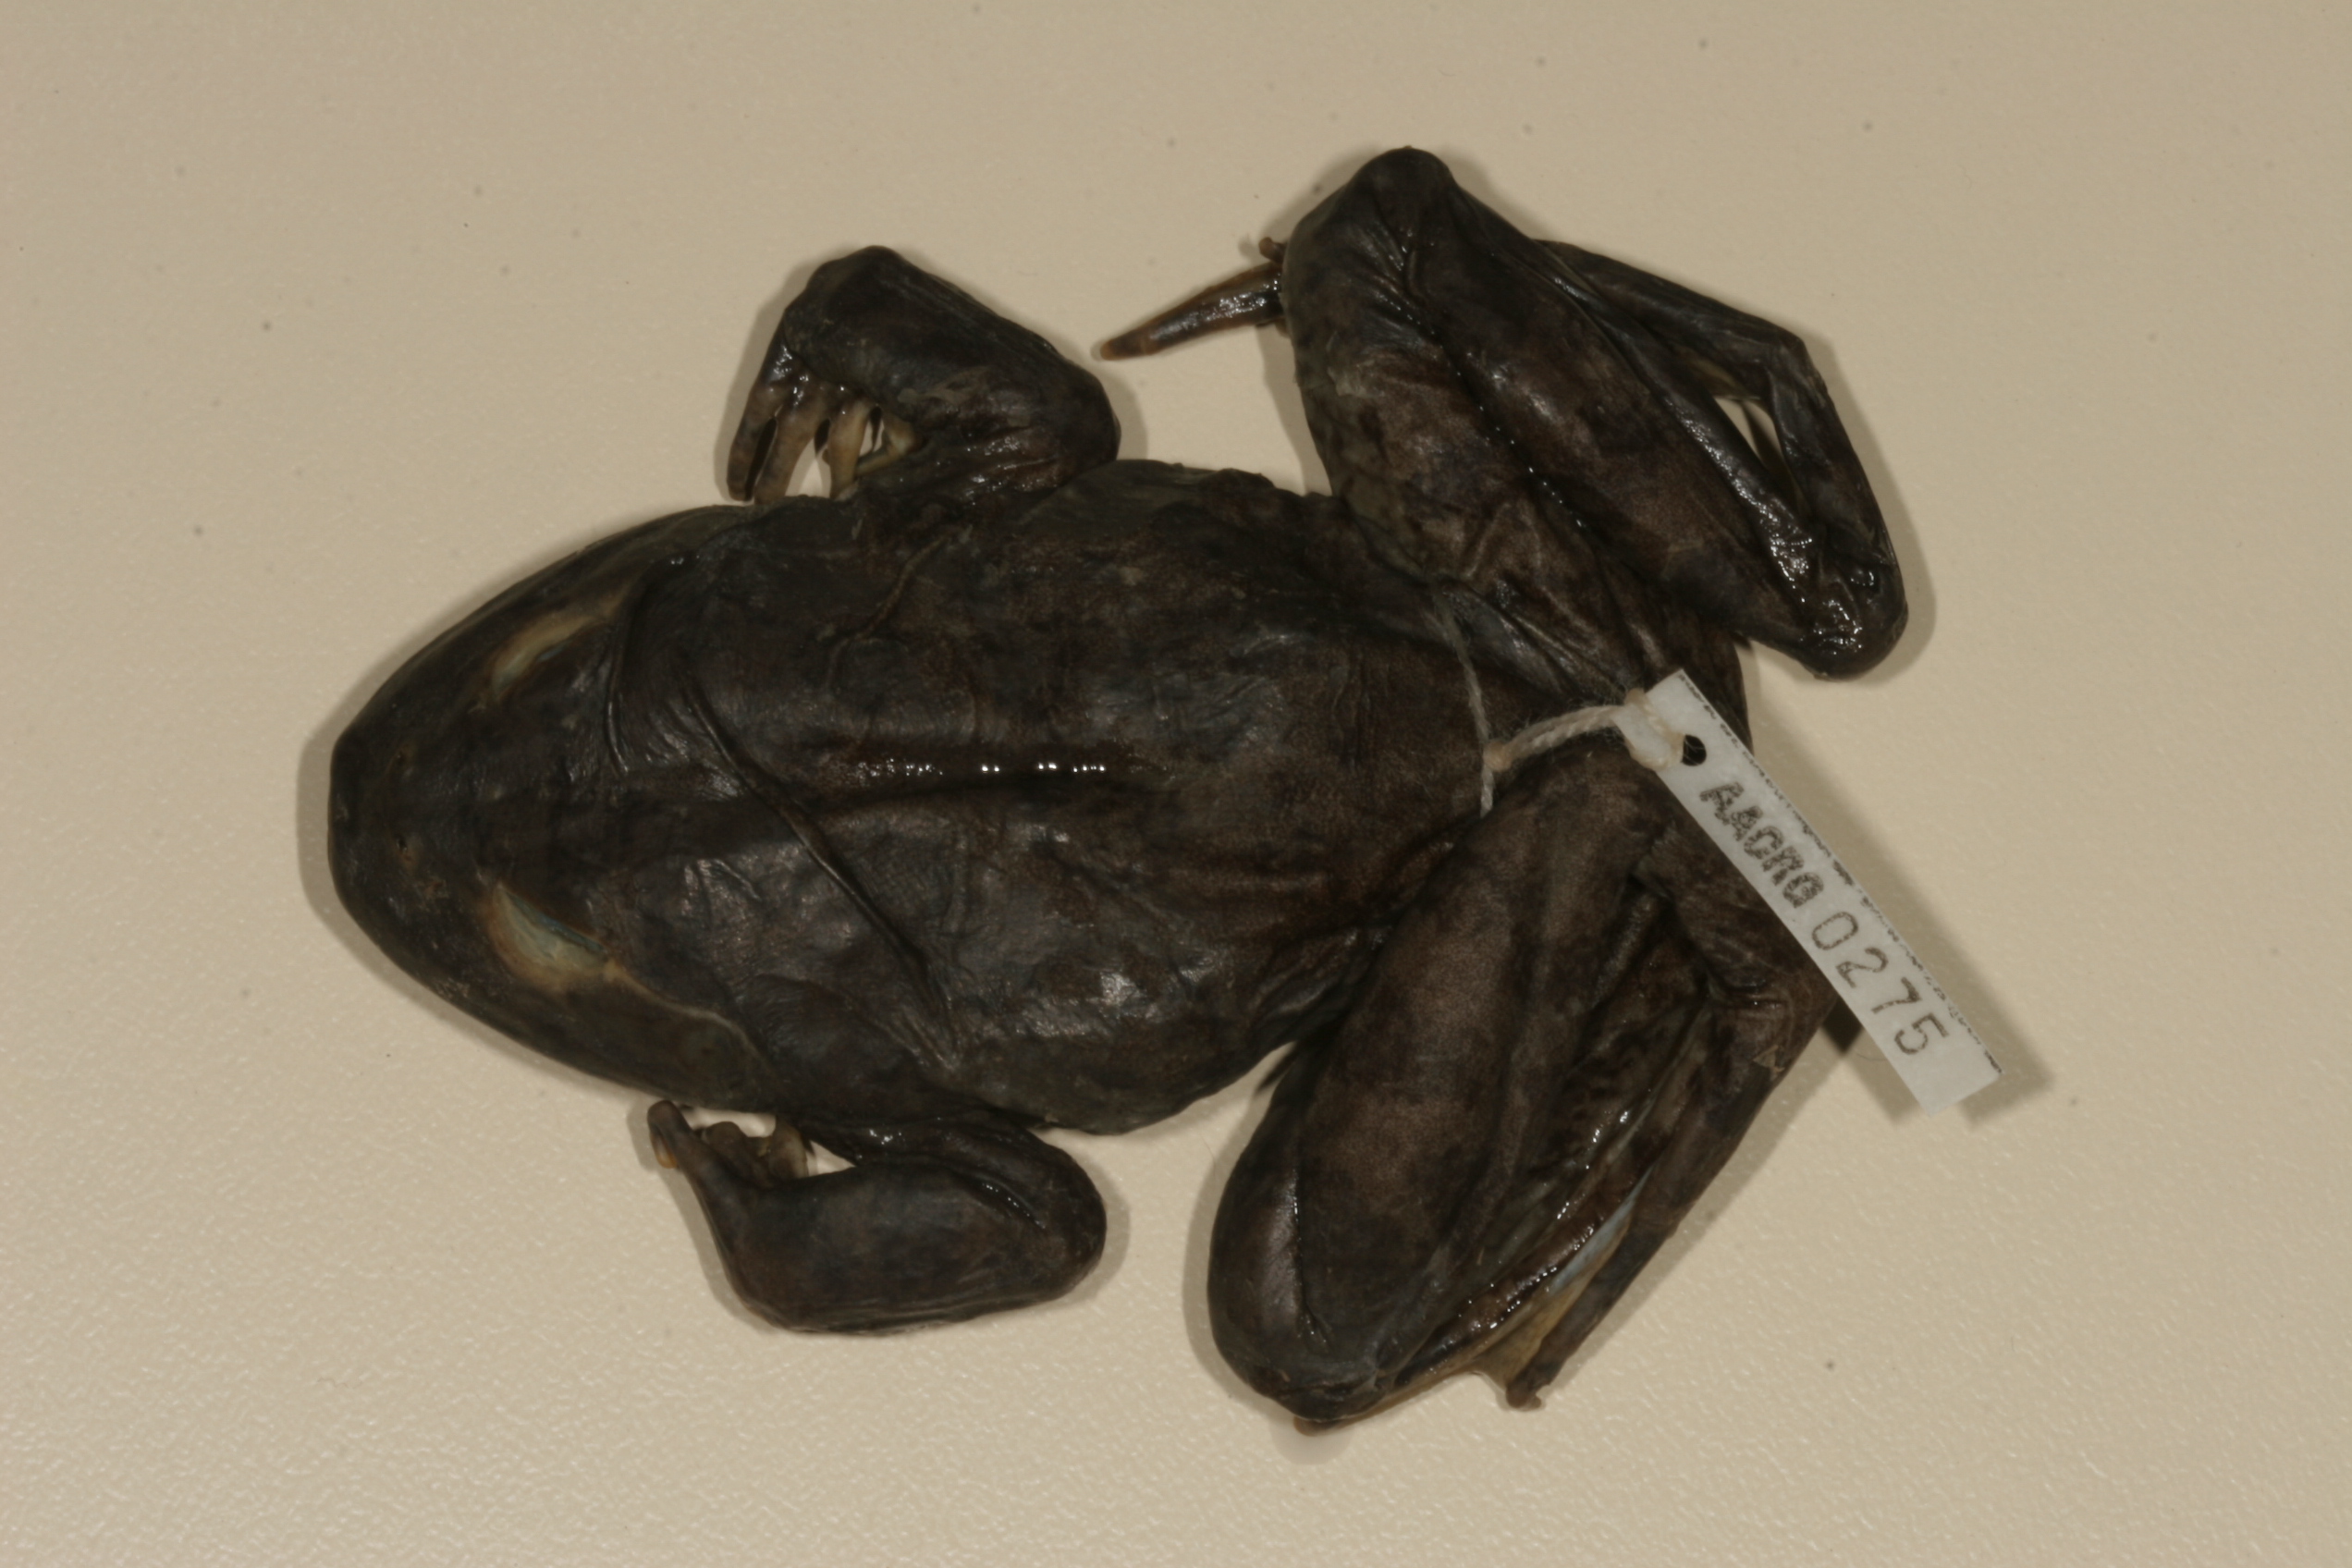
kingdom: Animalia
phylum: Chordata
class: Amphibia
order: Anura
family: Pyxicephalidae
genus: Amietia
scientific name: Amietia vertebralis
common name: Drakensberg stream frog
